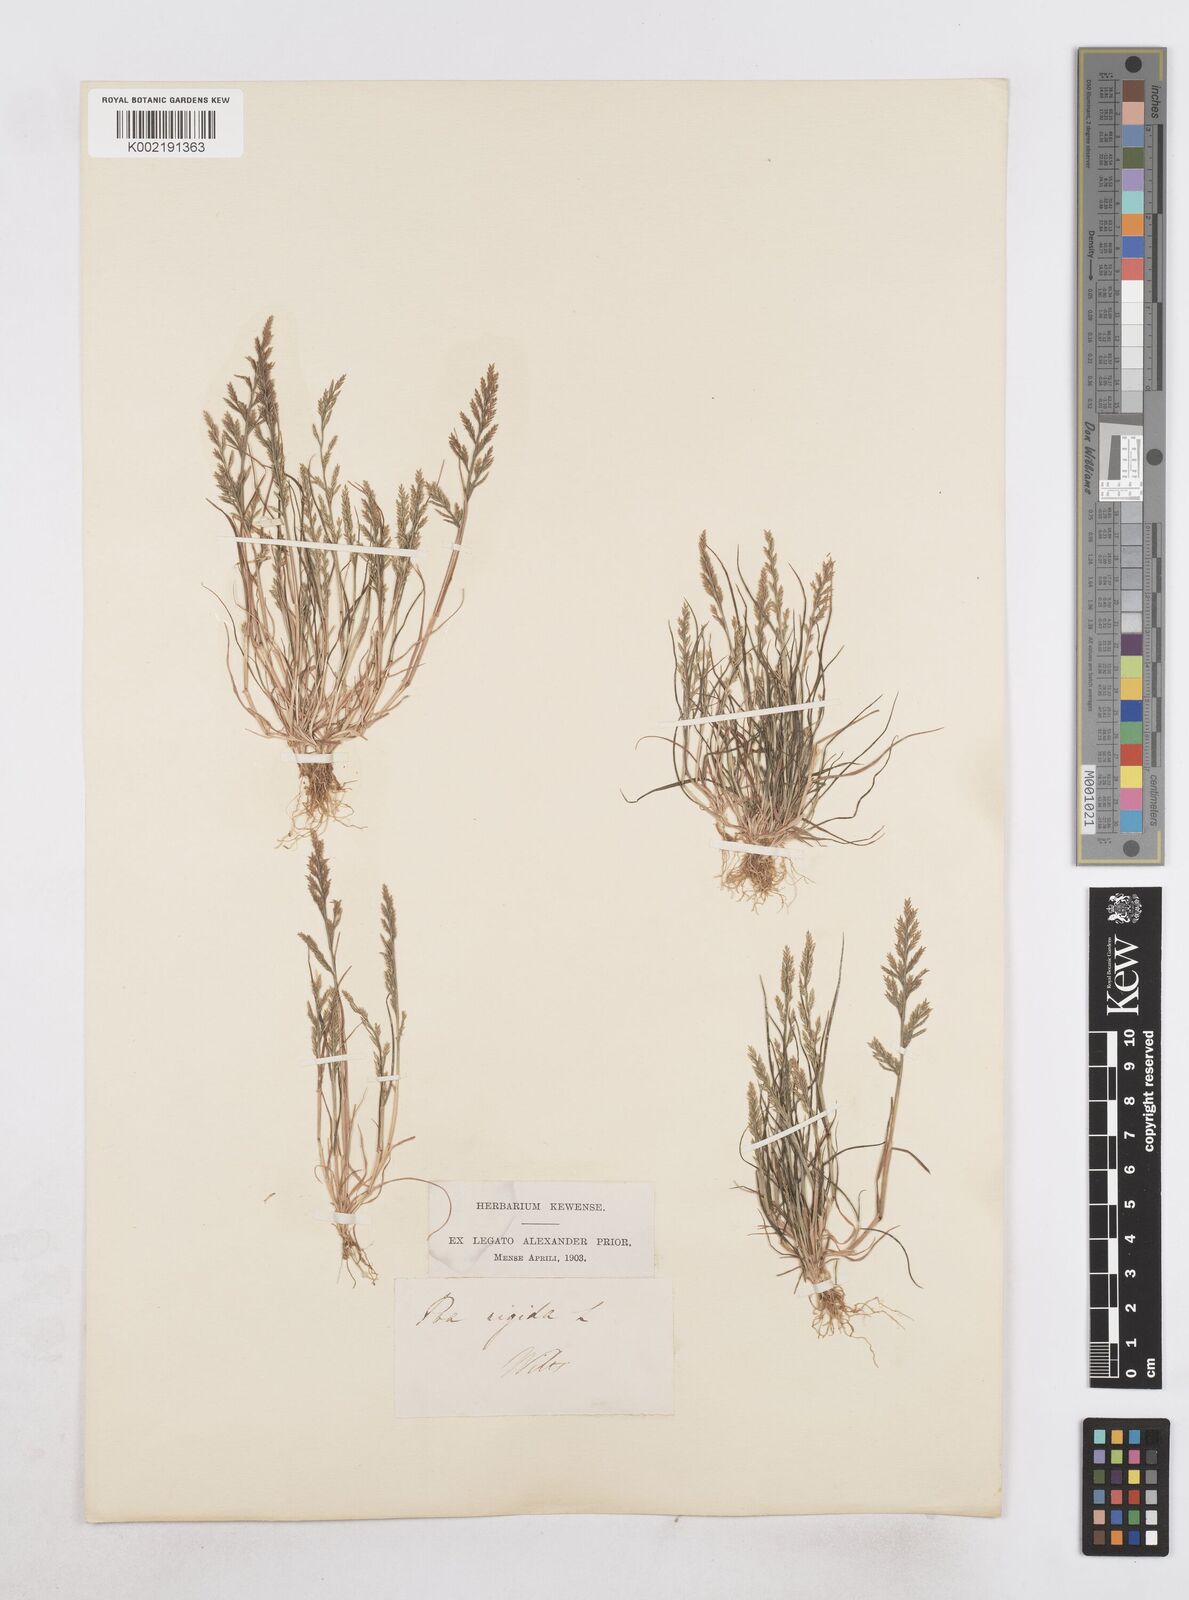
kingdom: Plantae
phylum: Tracheophyta
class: Liliopsida
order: Poales
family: Poaceae
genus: Catapodium
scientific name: Catapodium rigidum
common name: Fern-grass
